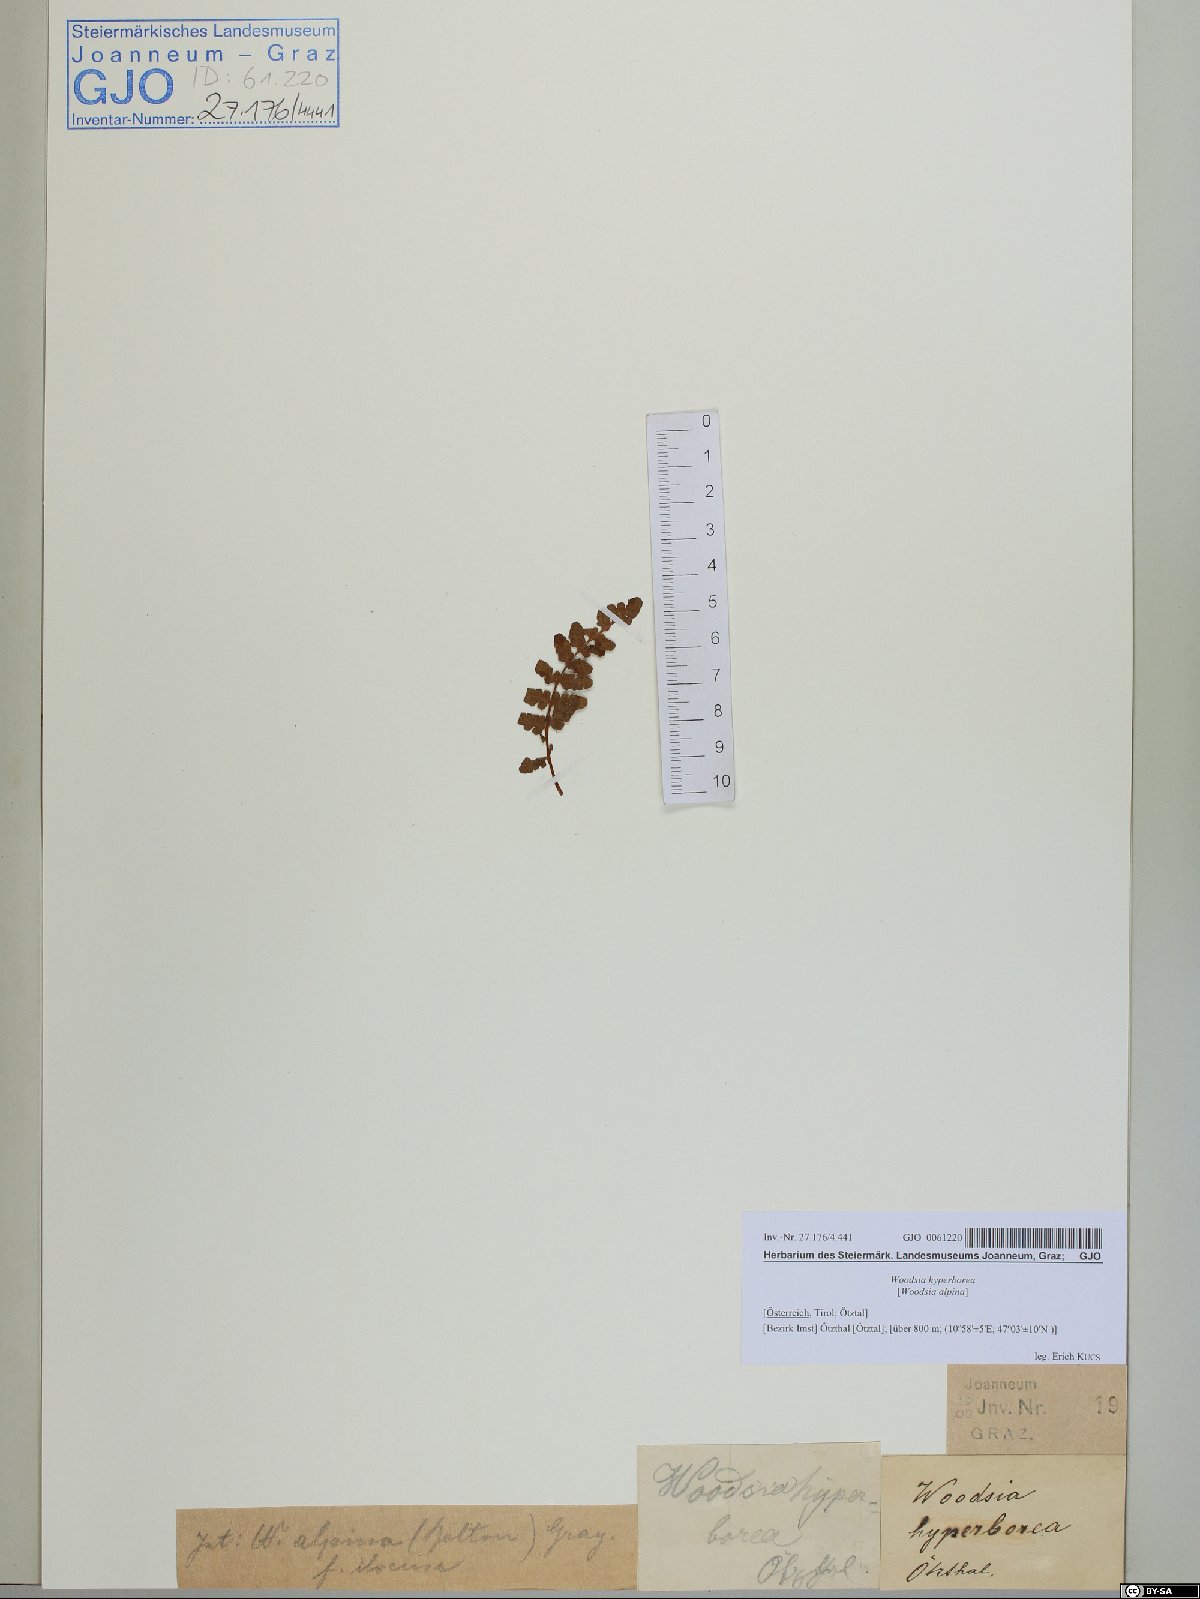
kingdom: Plantae
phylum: Tracheophyta
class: Polypodiopsida
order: Polypodiales
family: Woodsiaceae
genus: Woodsia
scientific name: Woodsia alpina
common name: Alpine woodsia
